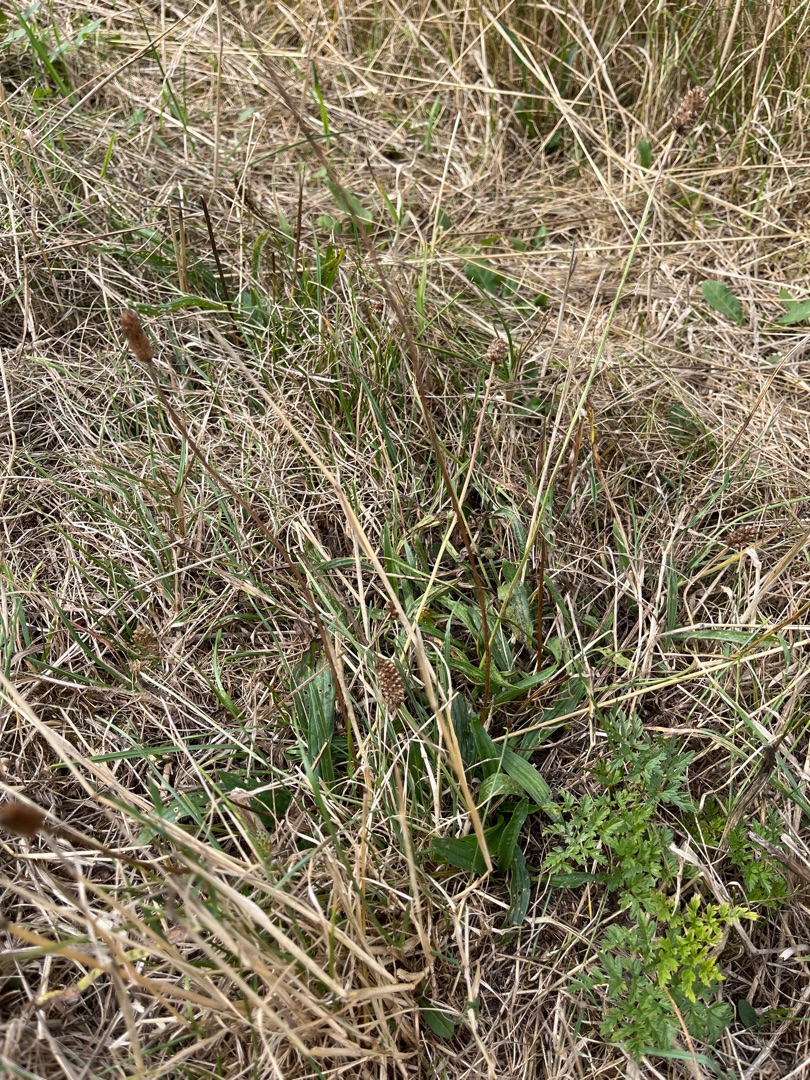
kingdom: Plantae
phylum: Tracheophyta
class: Magnoliopsida
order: Lamiales
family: Plantaginaceae
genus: Plantago
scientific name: Plantago lanceolata
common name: Lancet-vejbred
